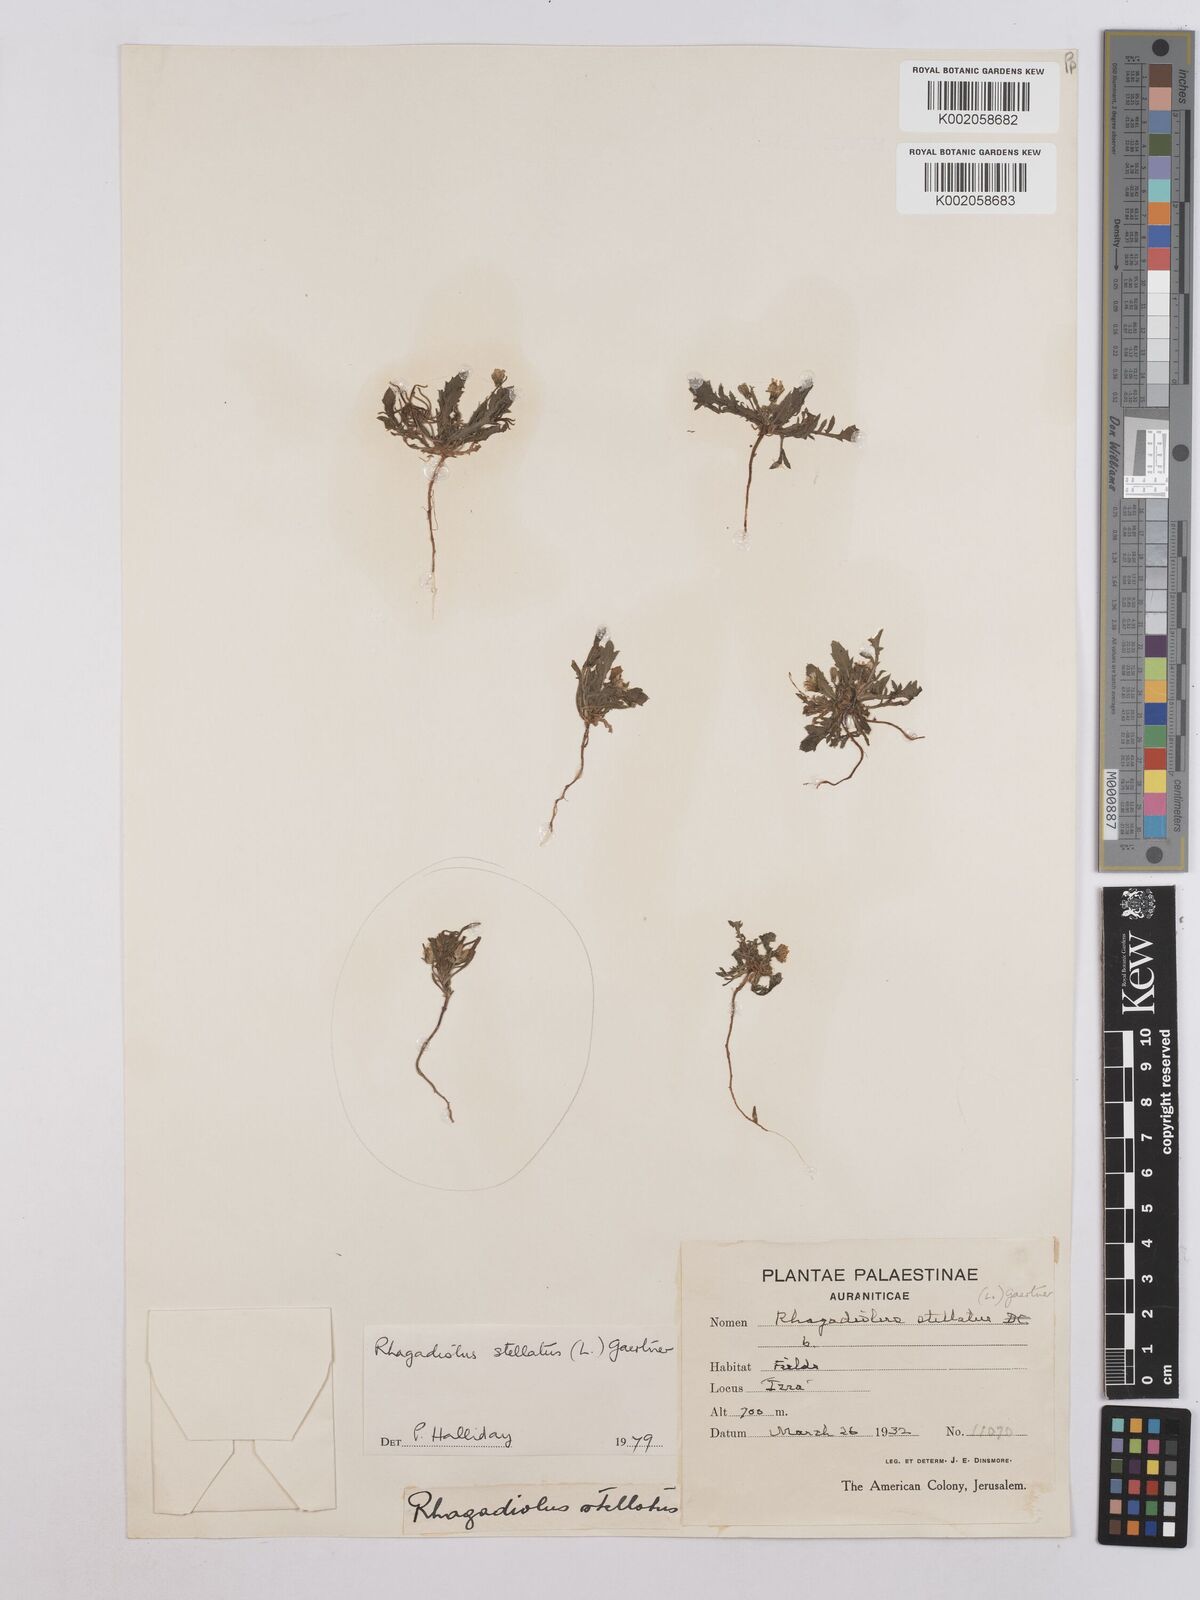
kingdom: Plantae
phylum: Tracheophyta
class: Magnoliopsida
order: Asterales
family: Asteraceae
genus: Rhagadiolus
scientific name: Rhagadiolus stellatus
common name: Star hawkbit
